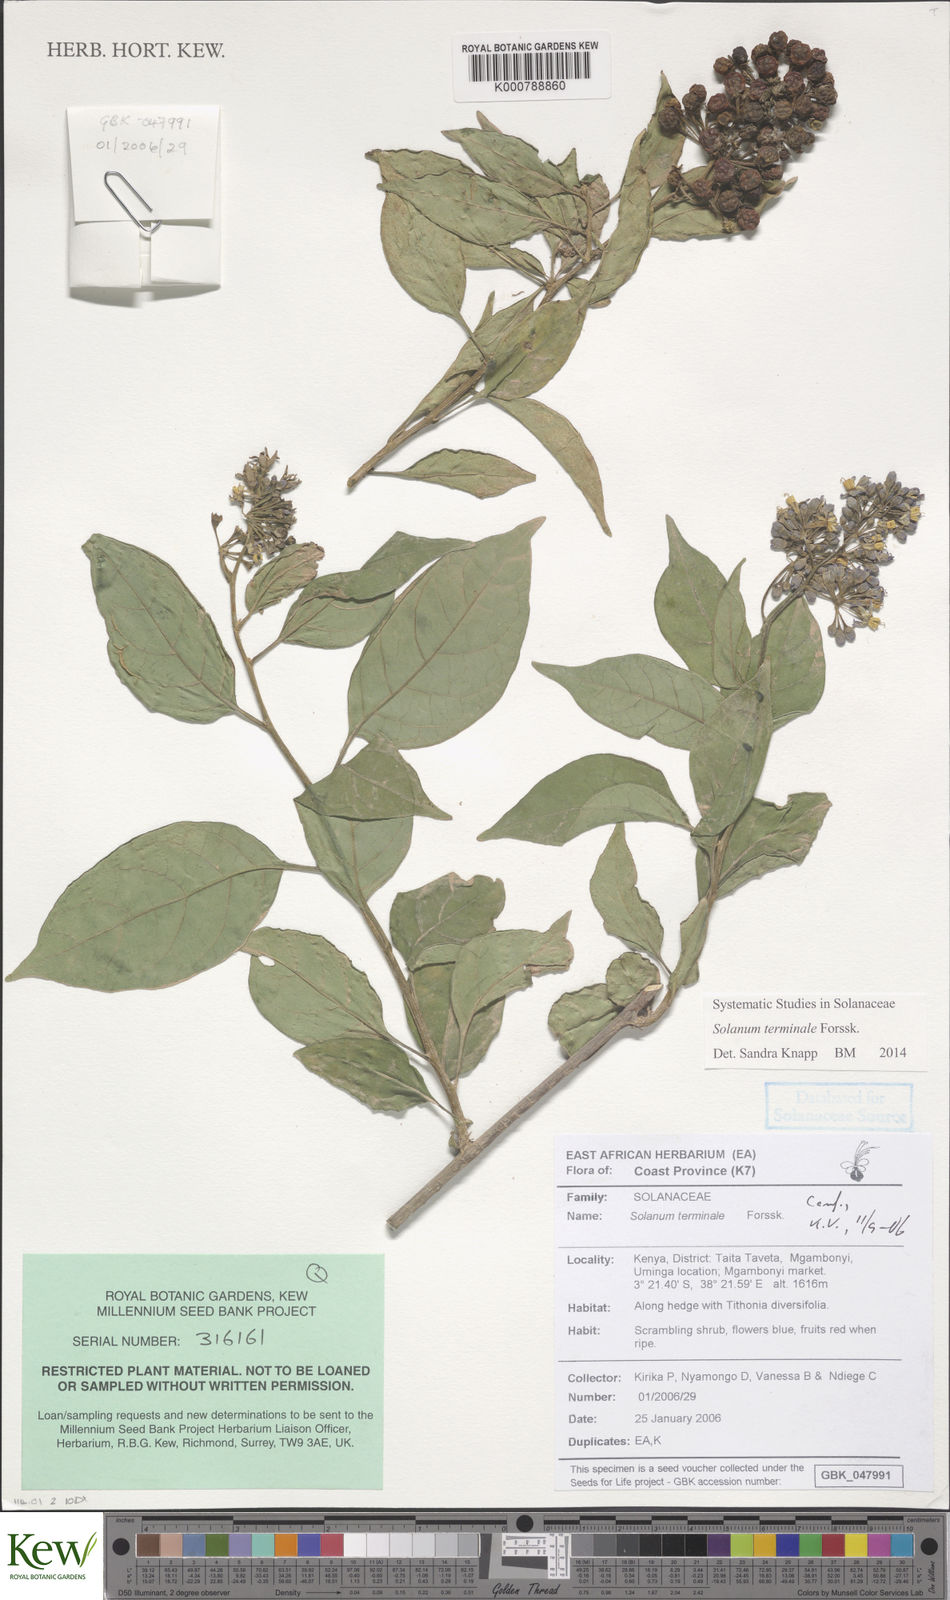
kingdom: Plantae
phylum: Tracheophyta
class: Magnoliopsida
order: Solanales
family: Solanaceae
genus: Solanum
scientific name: Solanum terminale
